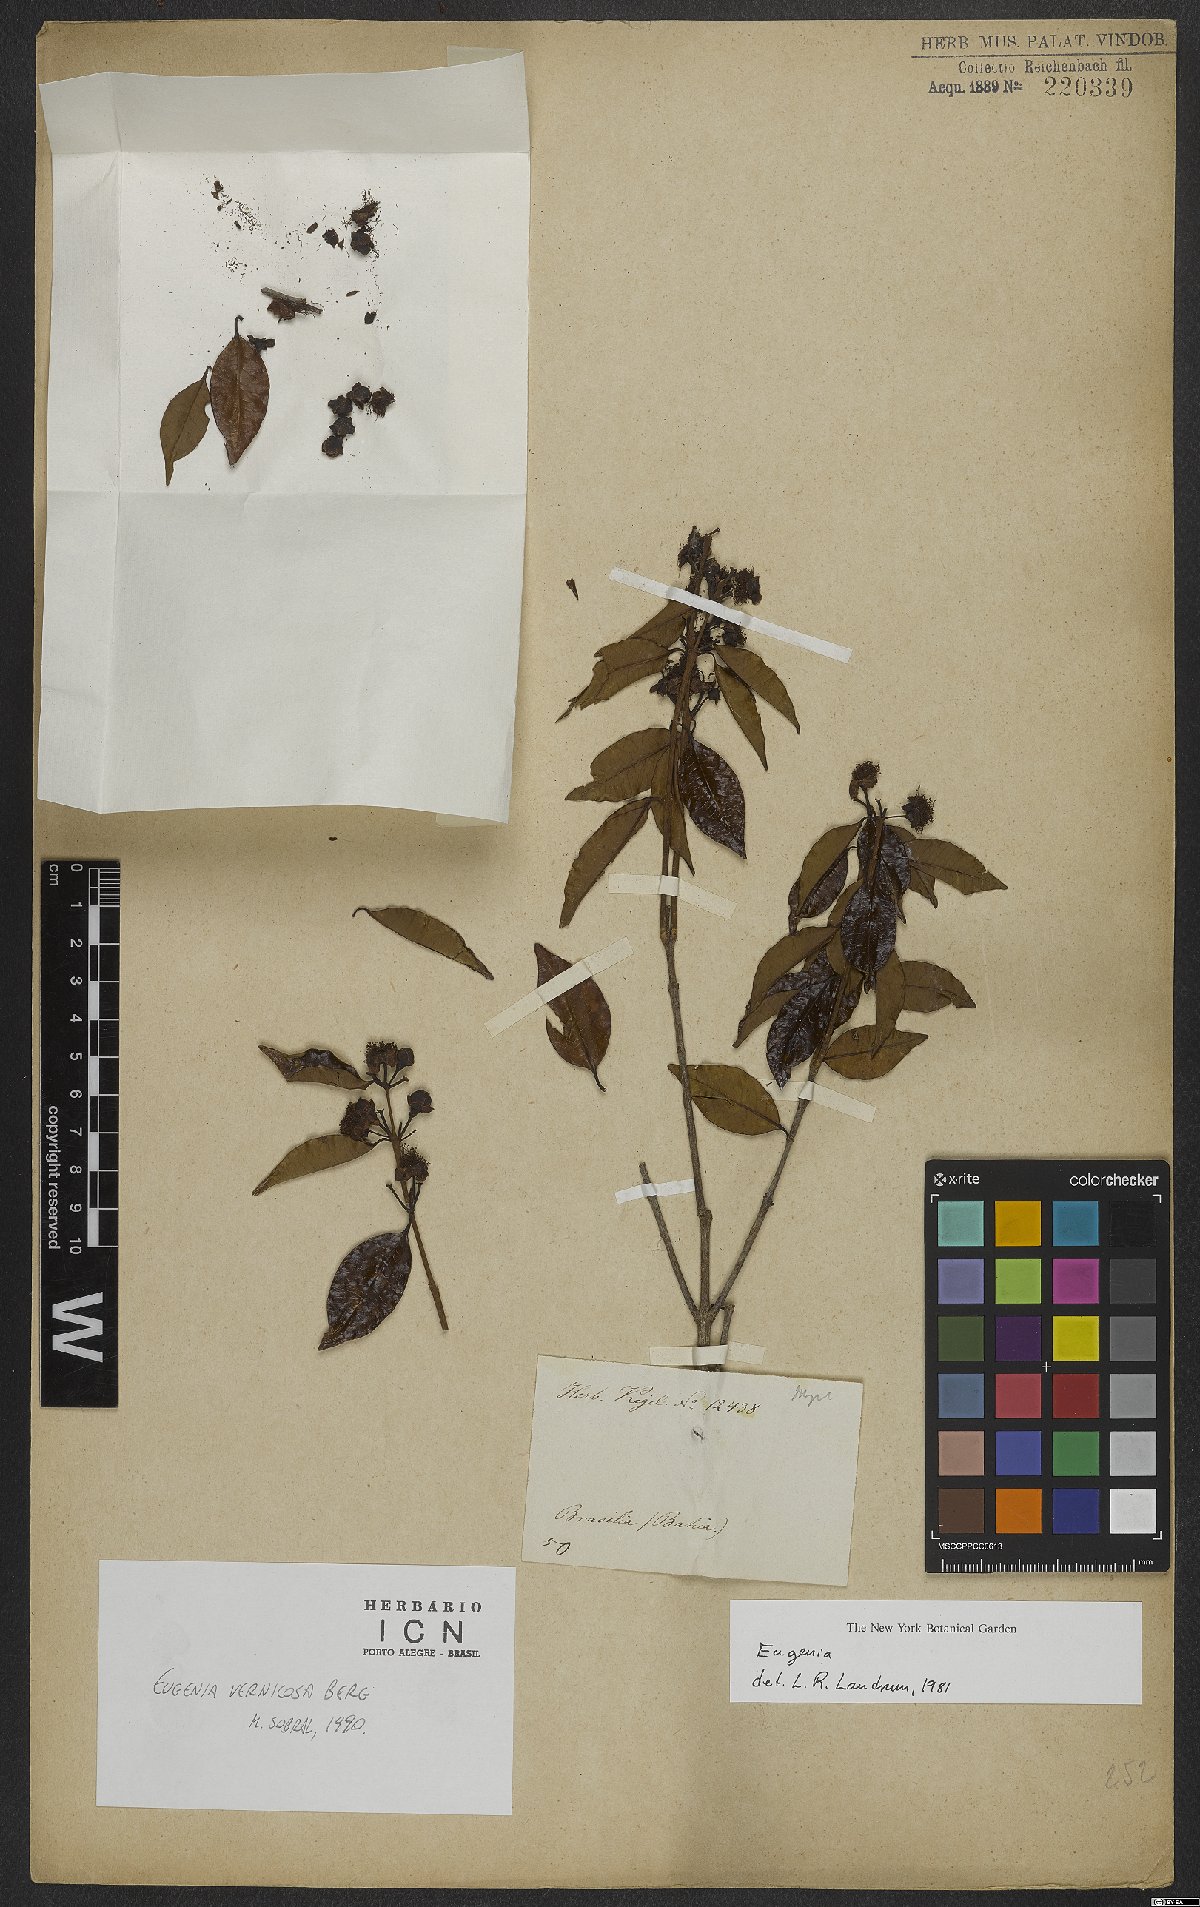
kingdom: Plantae
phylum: Tracheophyta
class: Magnoliopsida
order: Myrtales
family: Myrtaceae
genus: Eugenia
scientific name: Eugenia vernicosa
